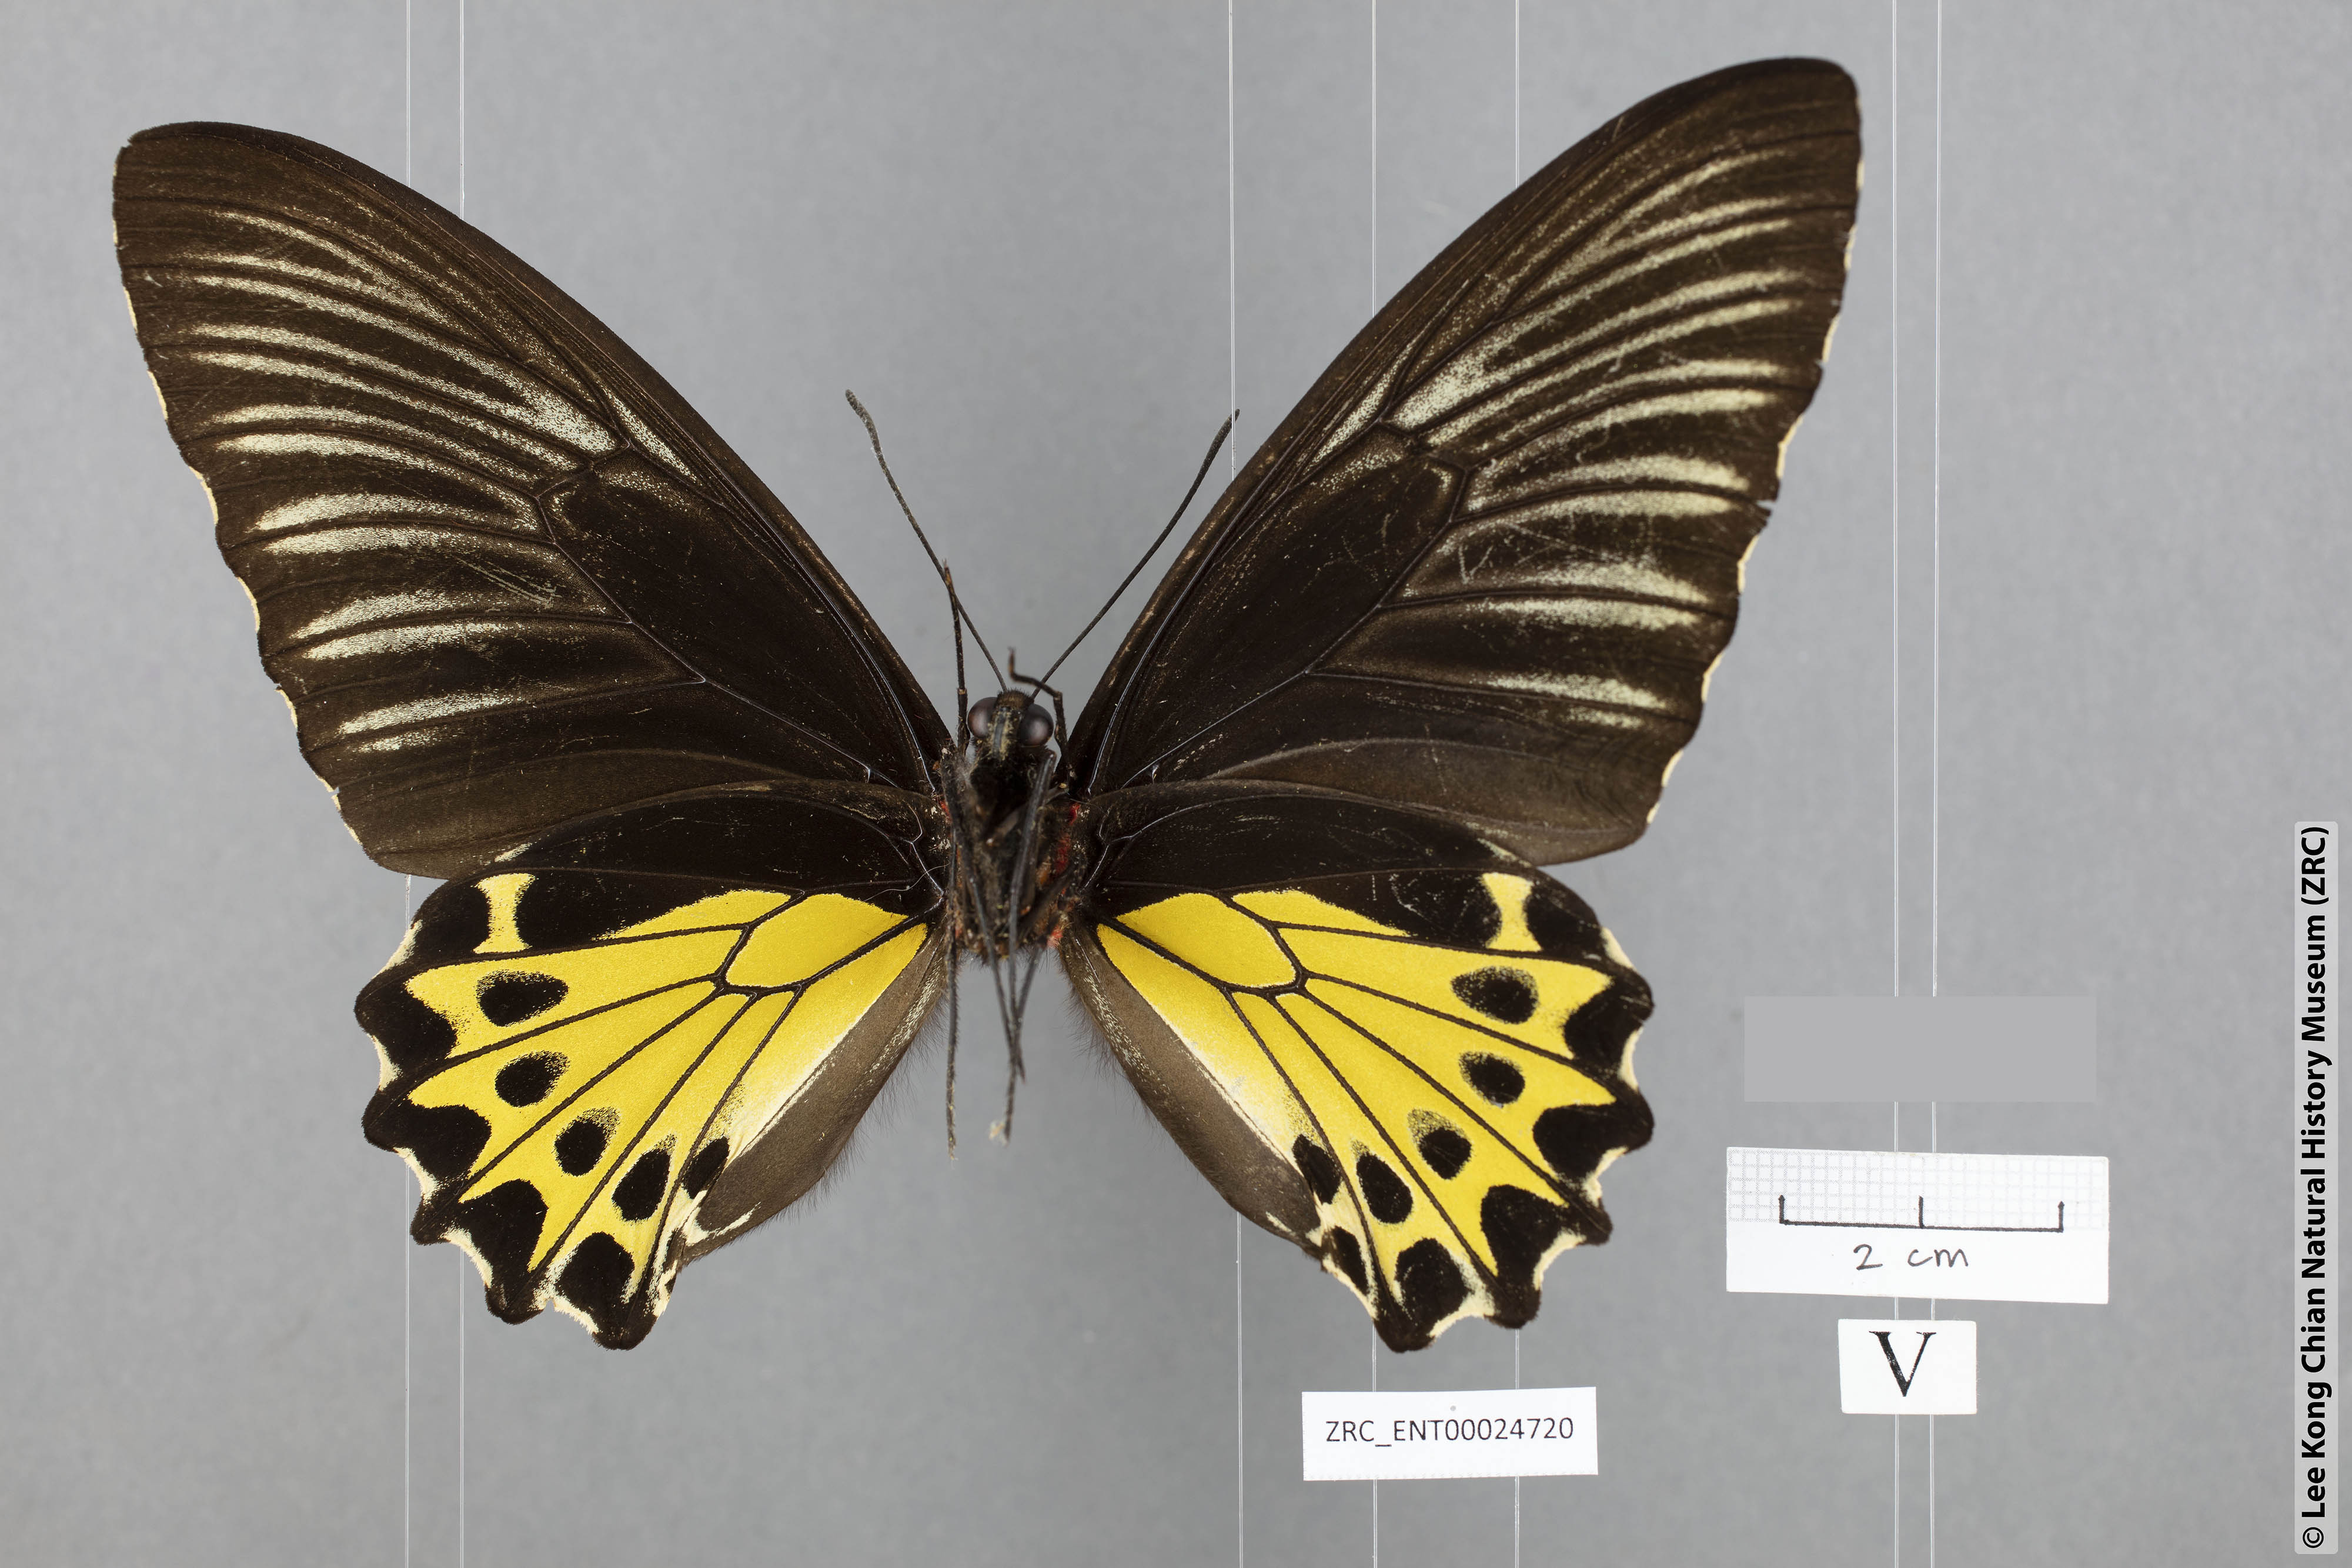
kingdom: Animalia
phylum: Arthropoda
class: Insecta
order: Lepidoptera
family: Papilionidae
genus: Troides
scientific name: Troides amphyrus
